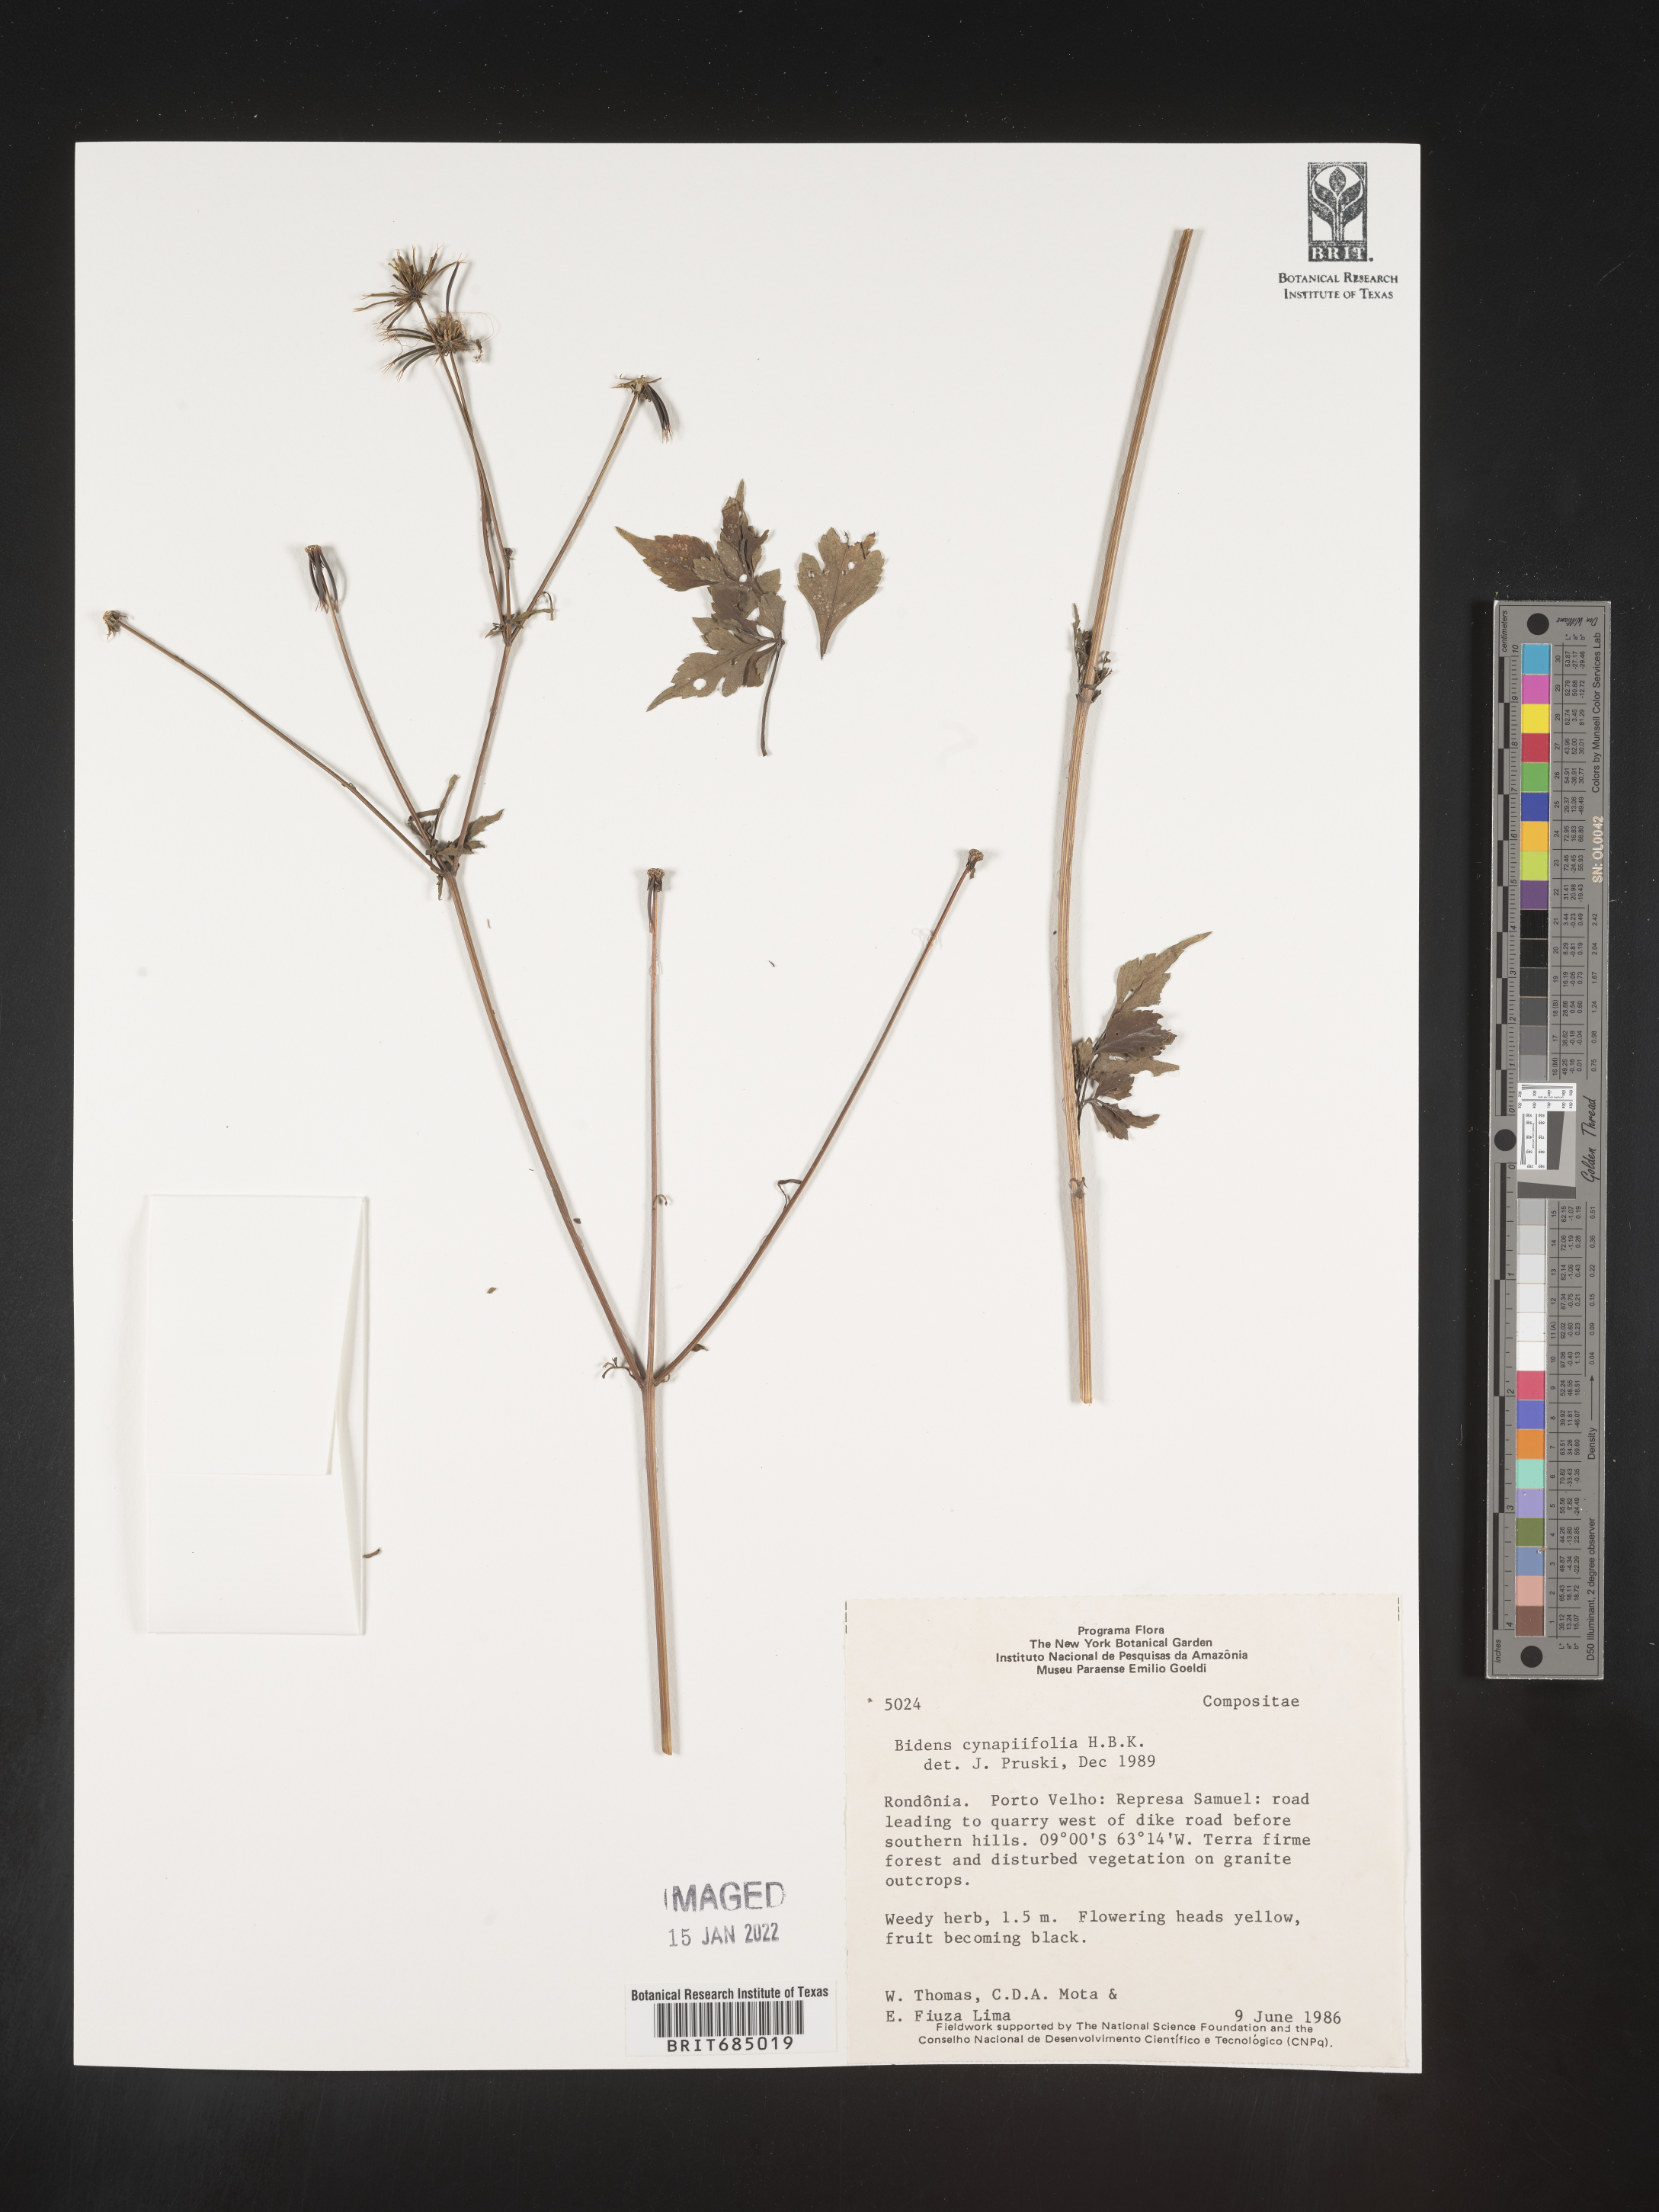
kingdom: Plantae
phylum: Tracheophyta
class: Magnoliopsida
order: Asterales
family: Asteraceae
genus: Bidens
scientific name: Bidens
